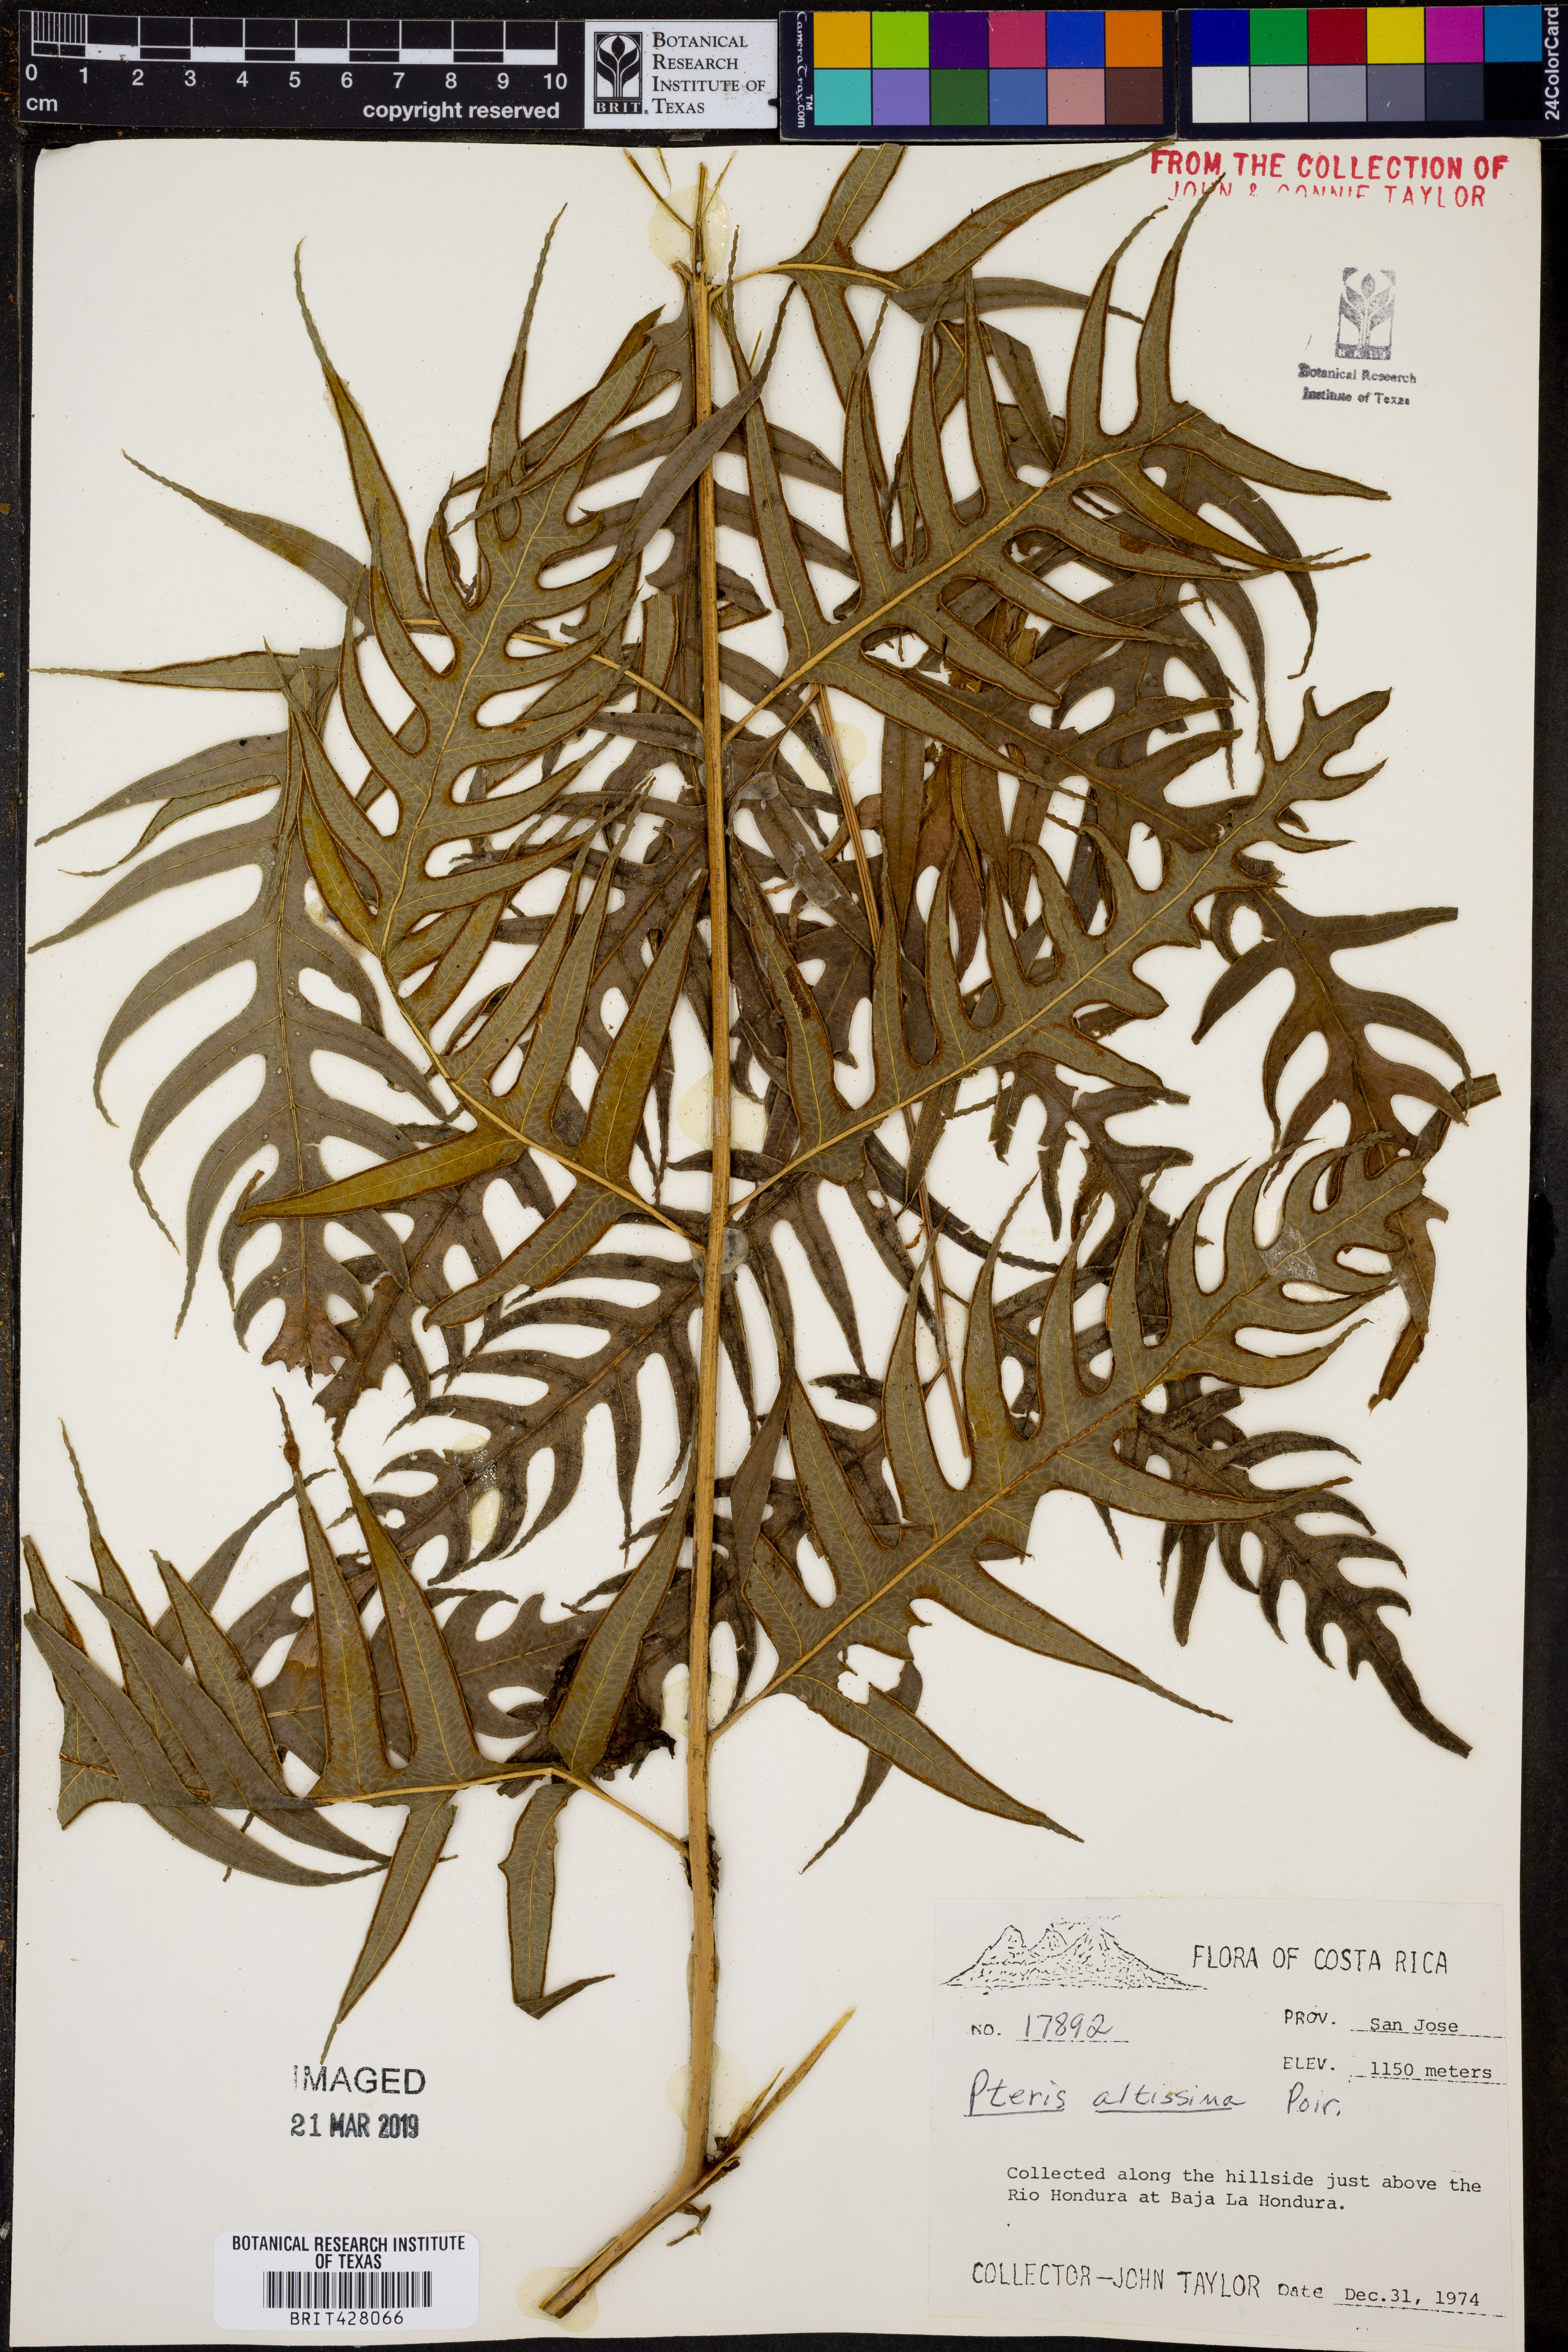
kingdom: Plantae
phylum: Tracheophyta
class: Polypodiopsida
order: Polypodiales
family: Pteridaceae
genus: Pteris
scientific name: Pteris altissima
